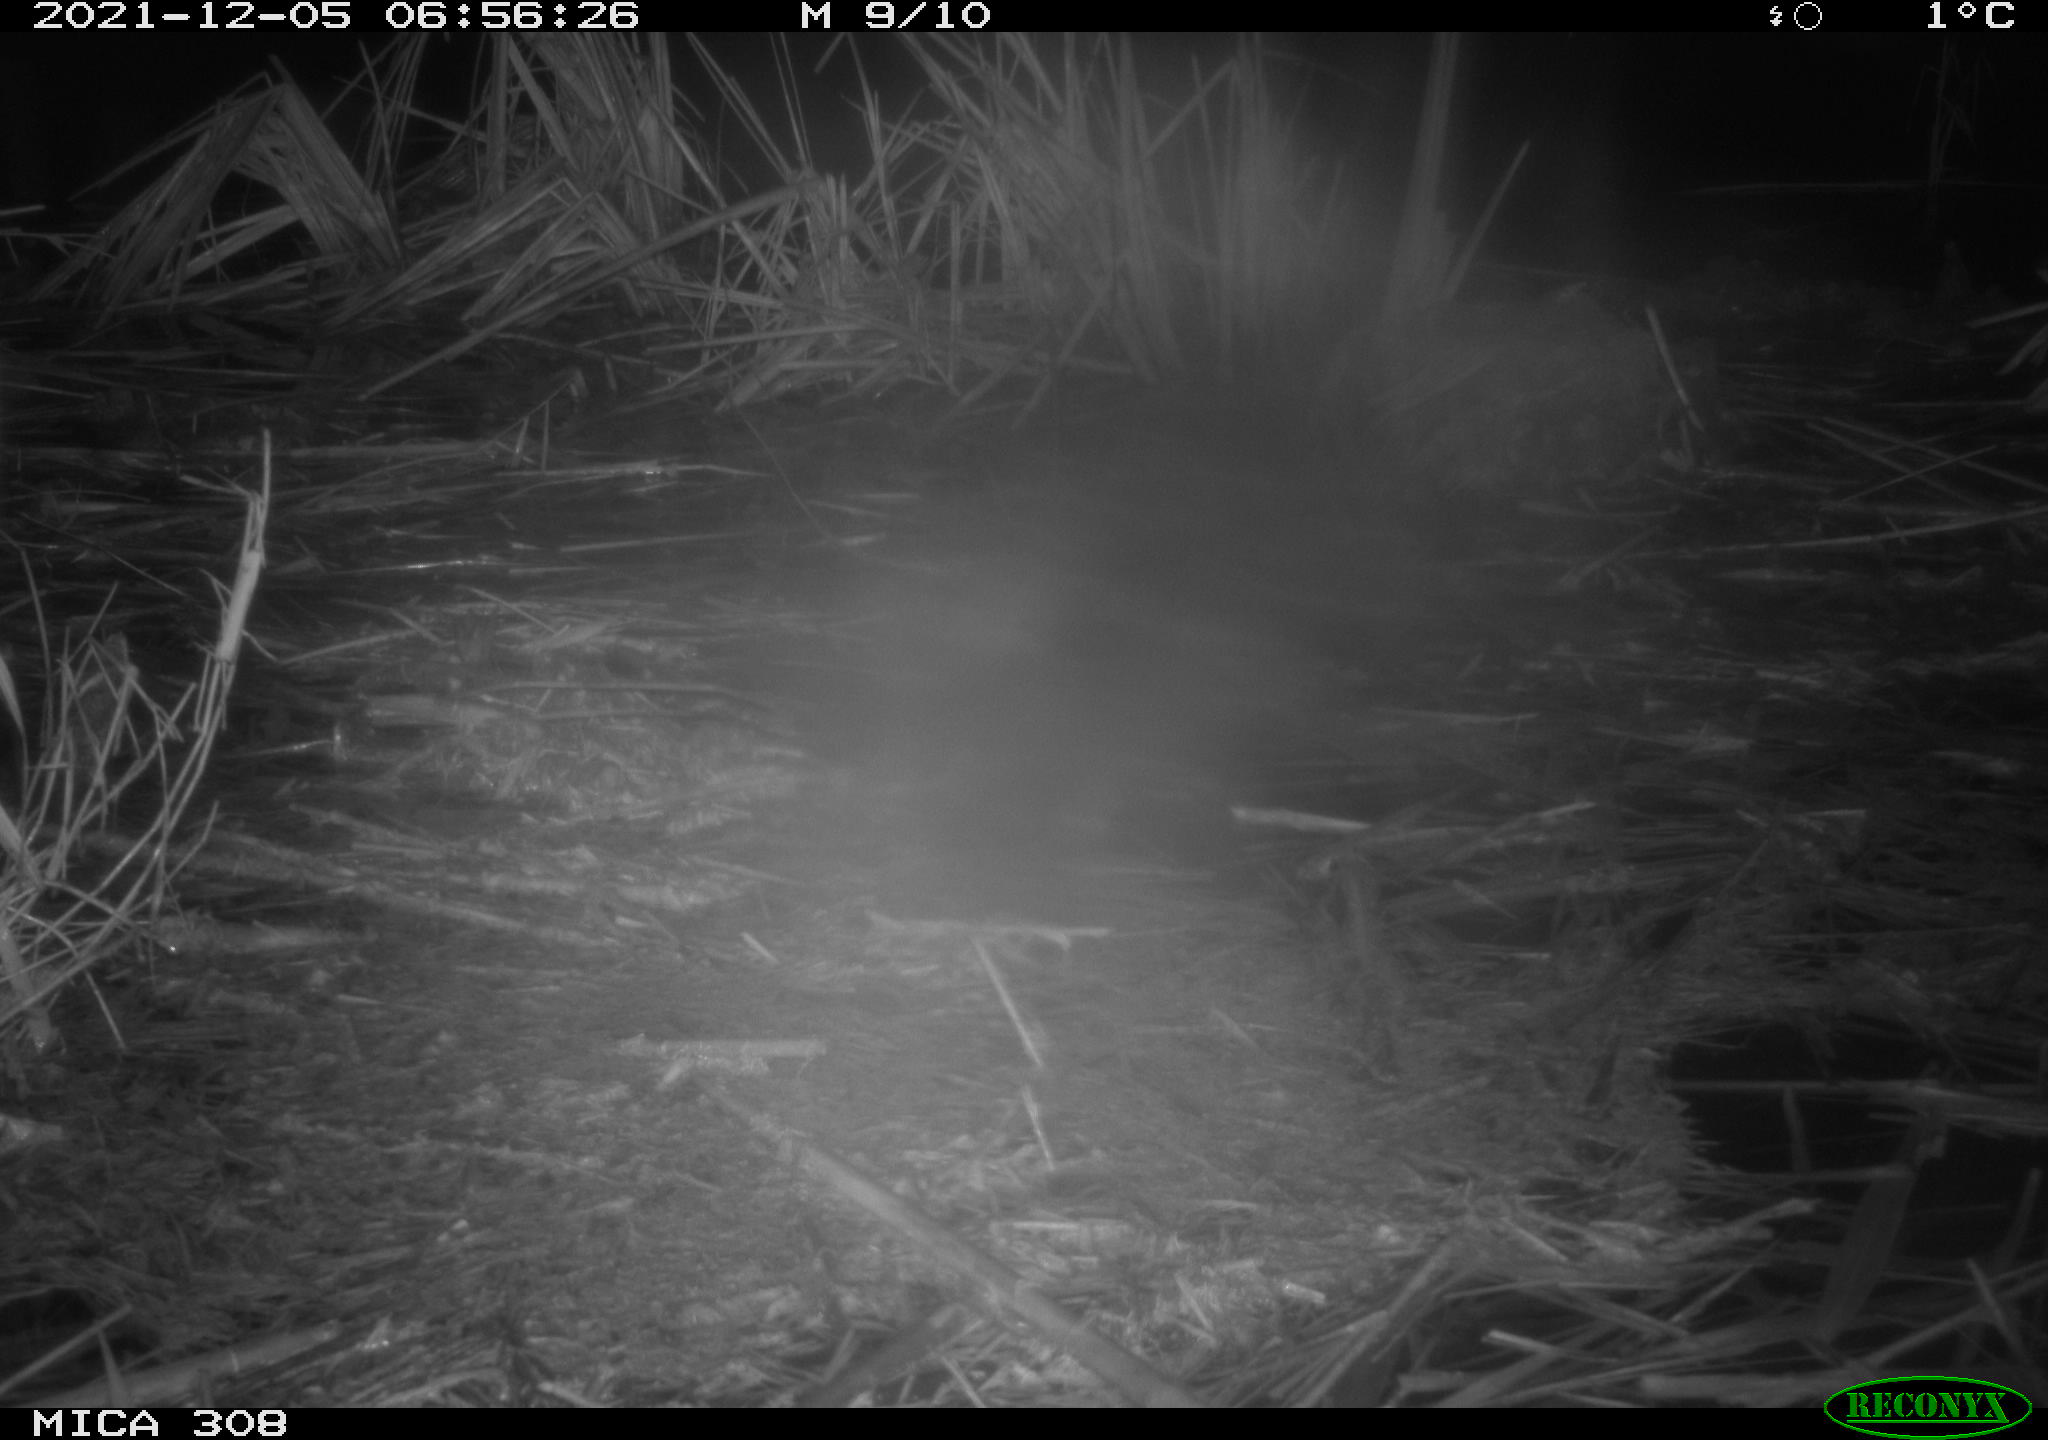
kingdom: Animalia
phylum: Chordata
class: Mammalia
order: Rodentia
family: Muridae
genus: Rattus
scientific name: Rattus norvegicus
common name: Brown rat
